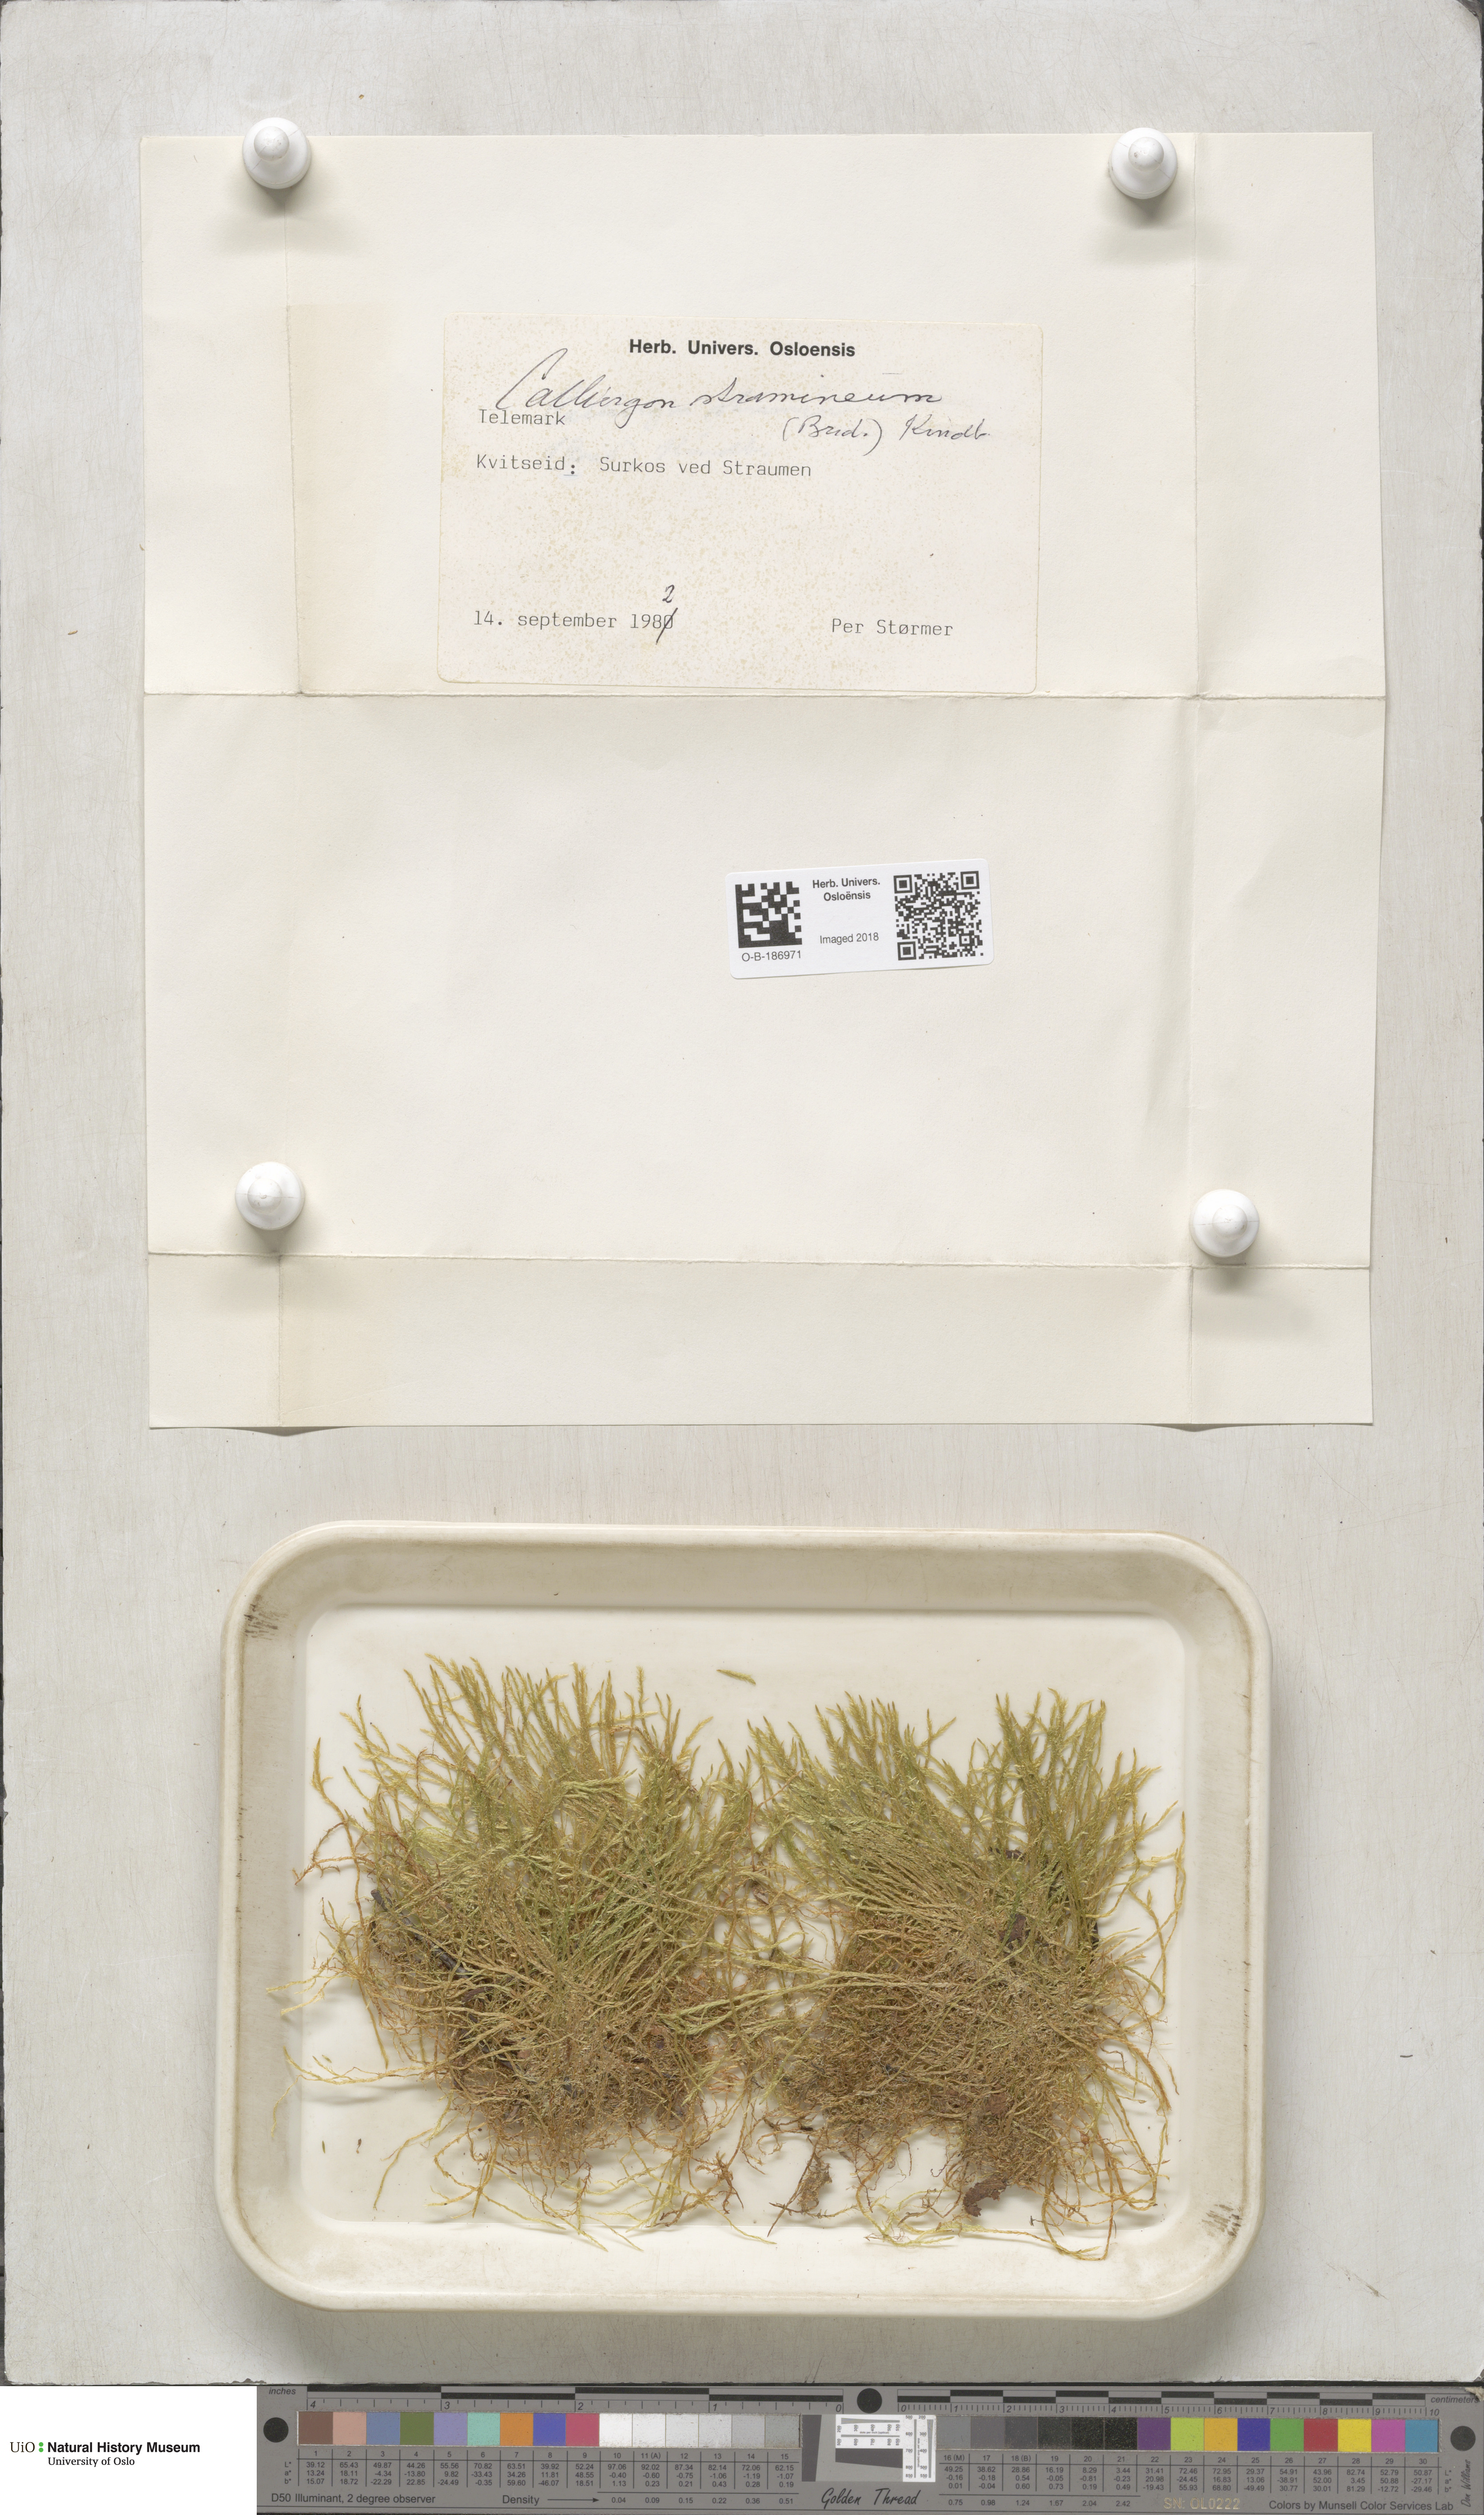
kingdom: Plantae
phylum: Bryophyta
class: Bryopsida
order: Hypnales
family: Calliergonaceae
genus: Straminergon
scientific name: Straminergon stramineum
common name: Straw moss
